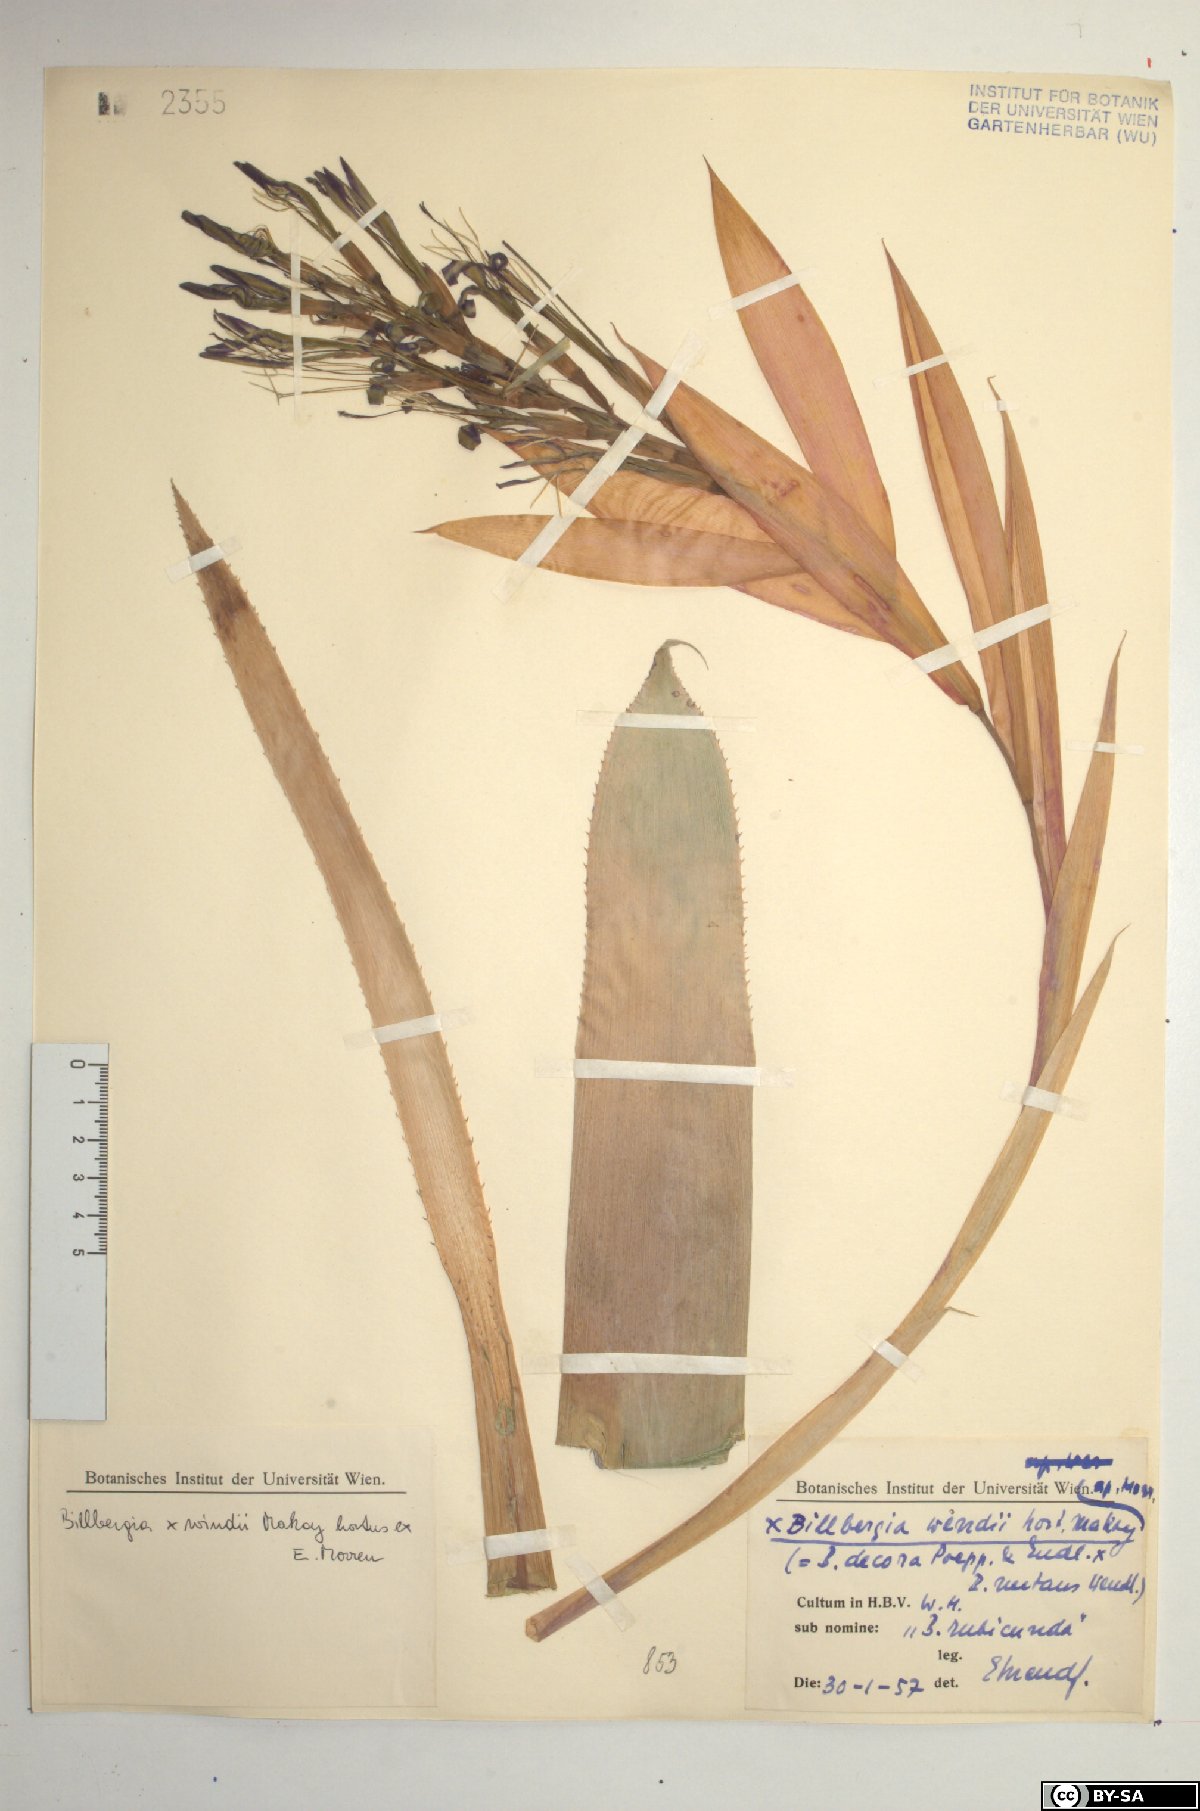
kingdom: Plantae
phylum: Tracheophyta
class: Liliopsida
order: Poales
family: Bromeliaceae
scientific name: Bromeliaceae
